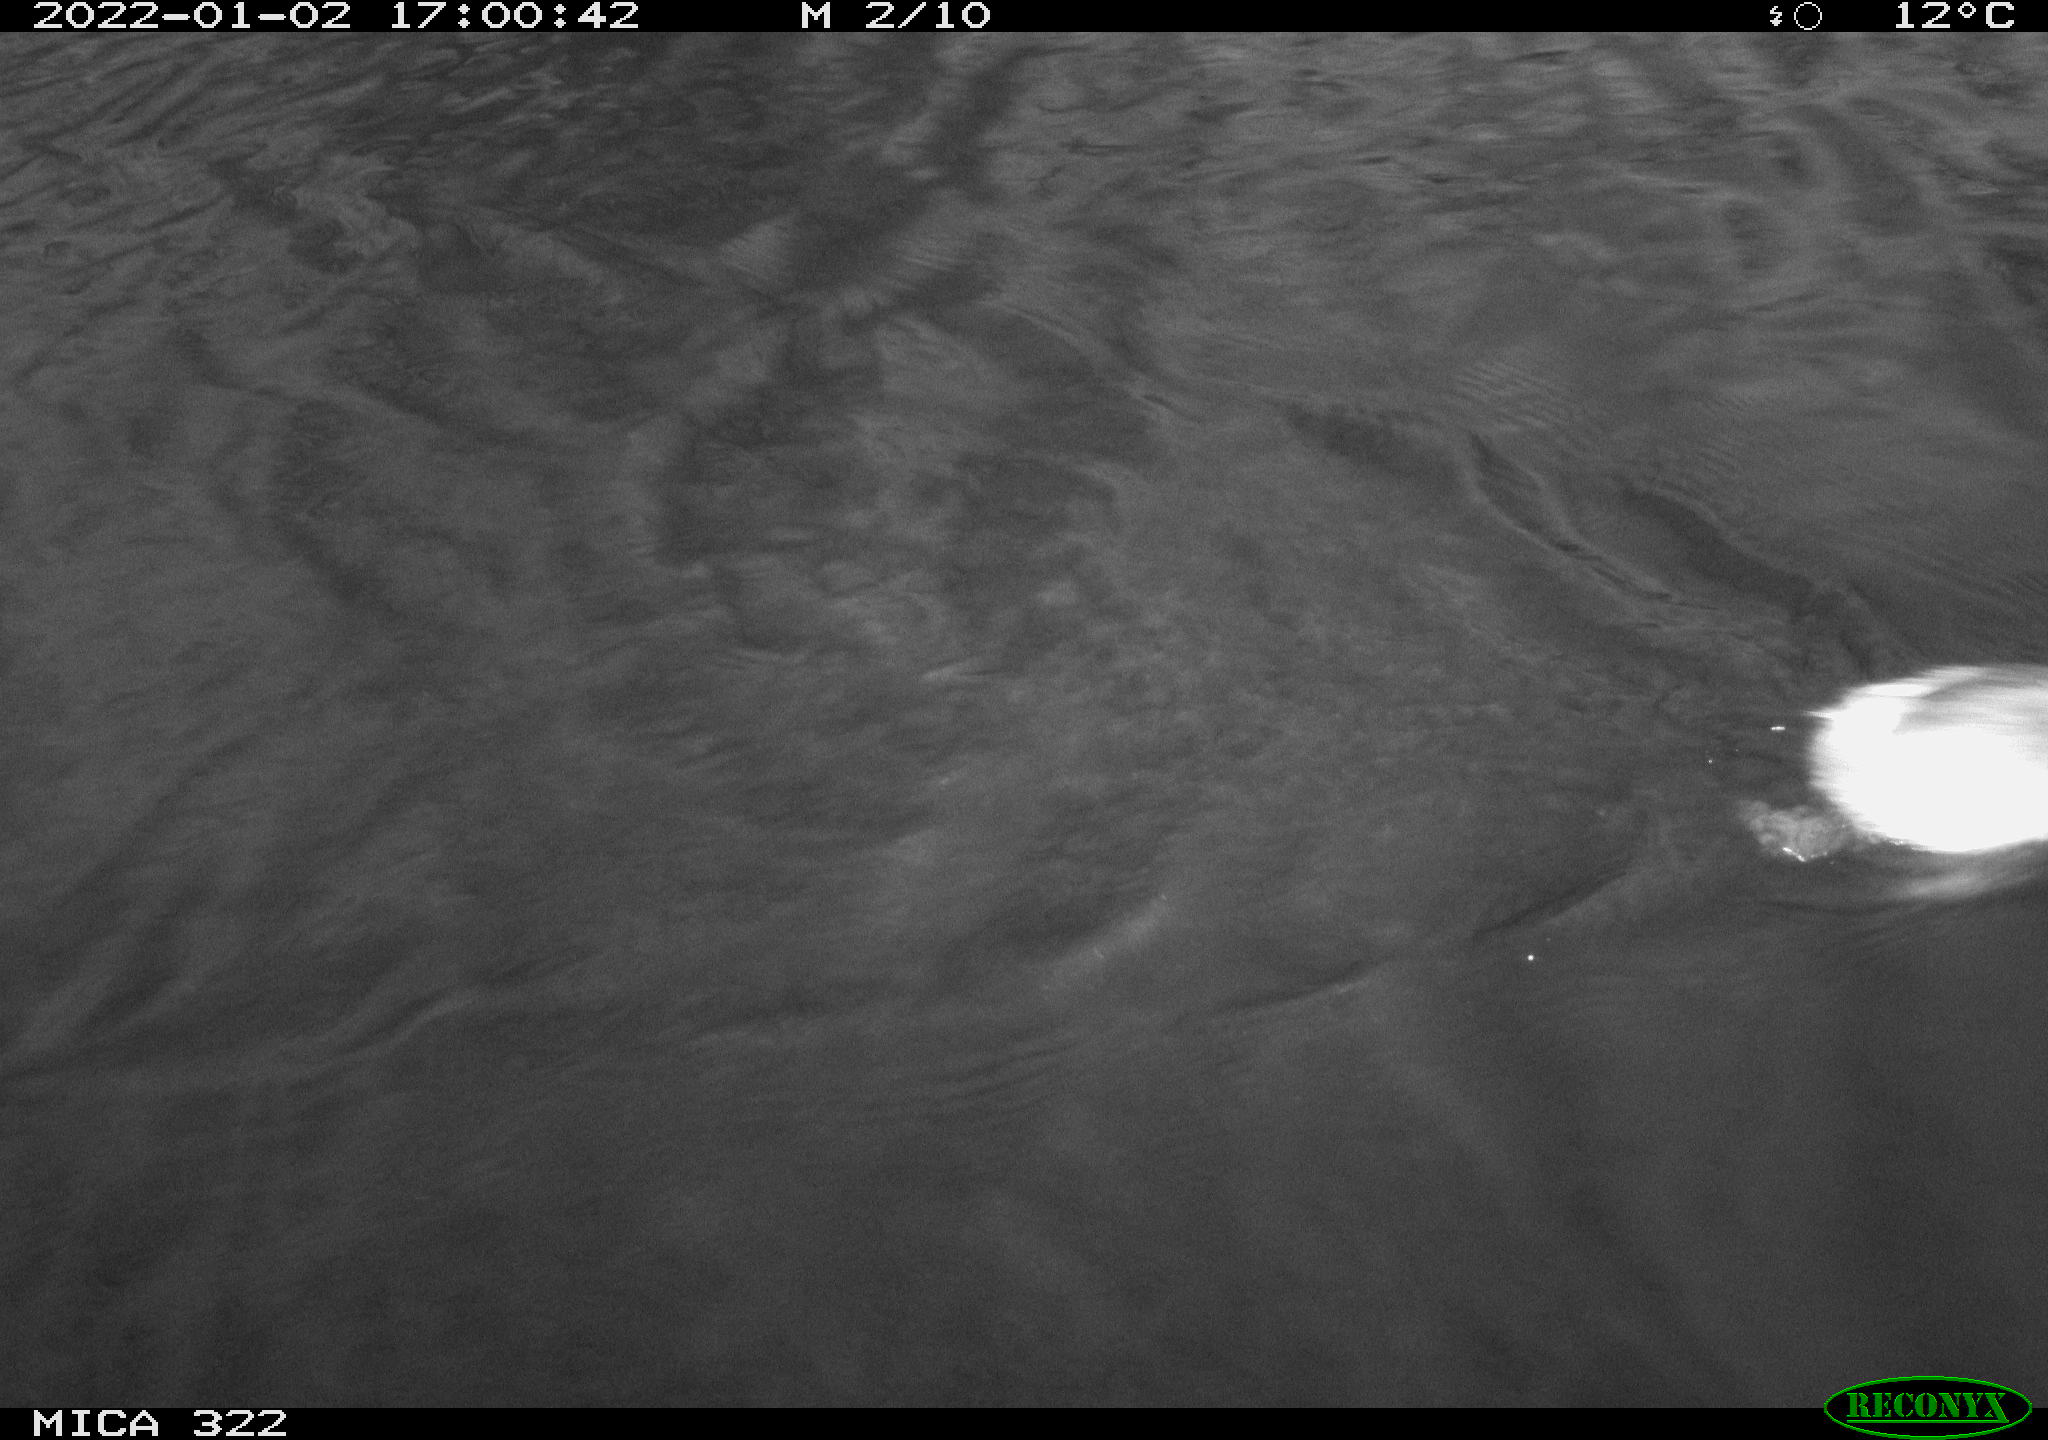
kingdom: Animalia
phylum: Chordata
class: Aves
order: Podicipediformes
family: Podicipedidae
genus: Tachybaptus
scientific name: Tachybaptus ruficollis
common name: Little grebe
